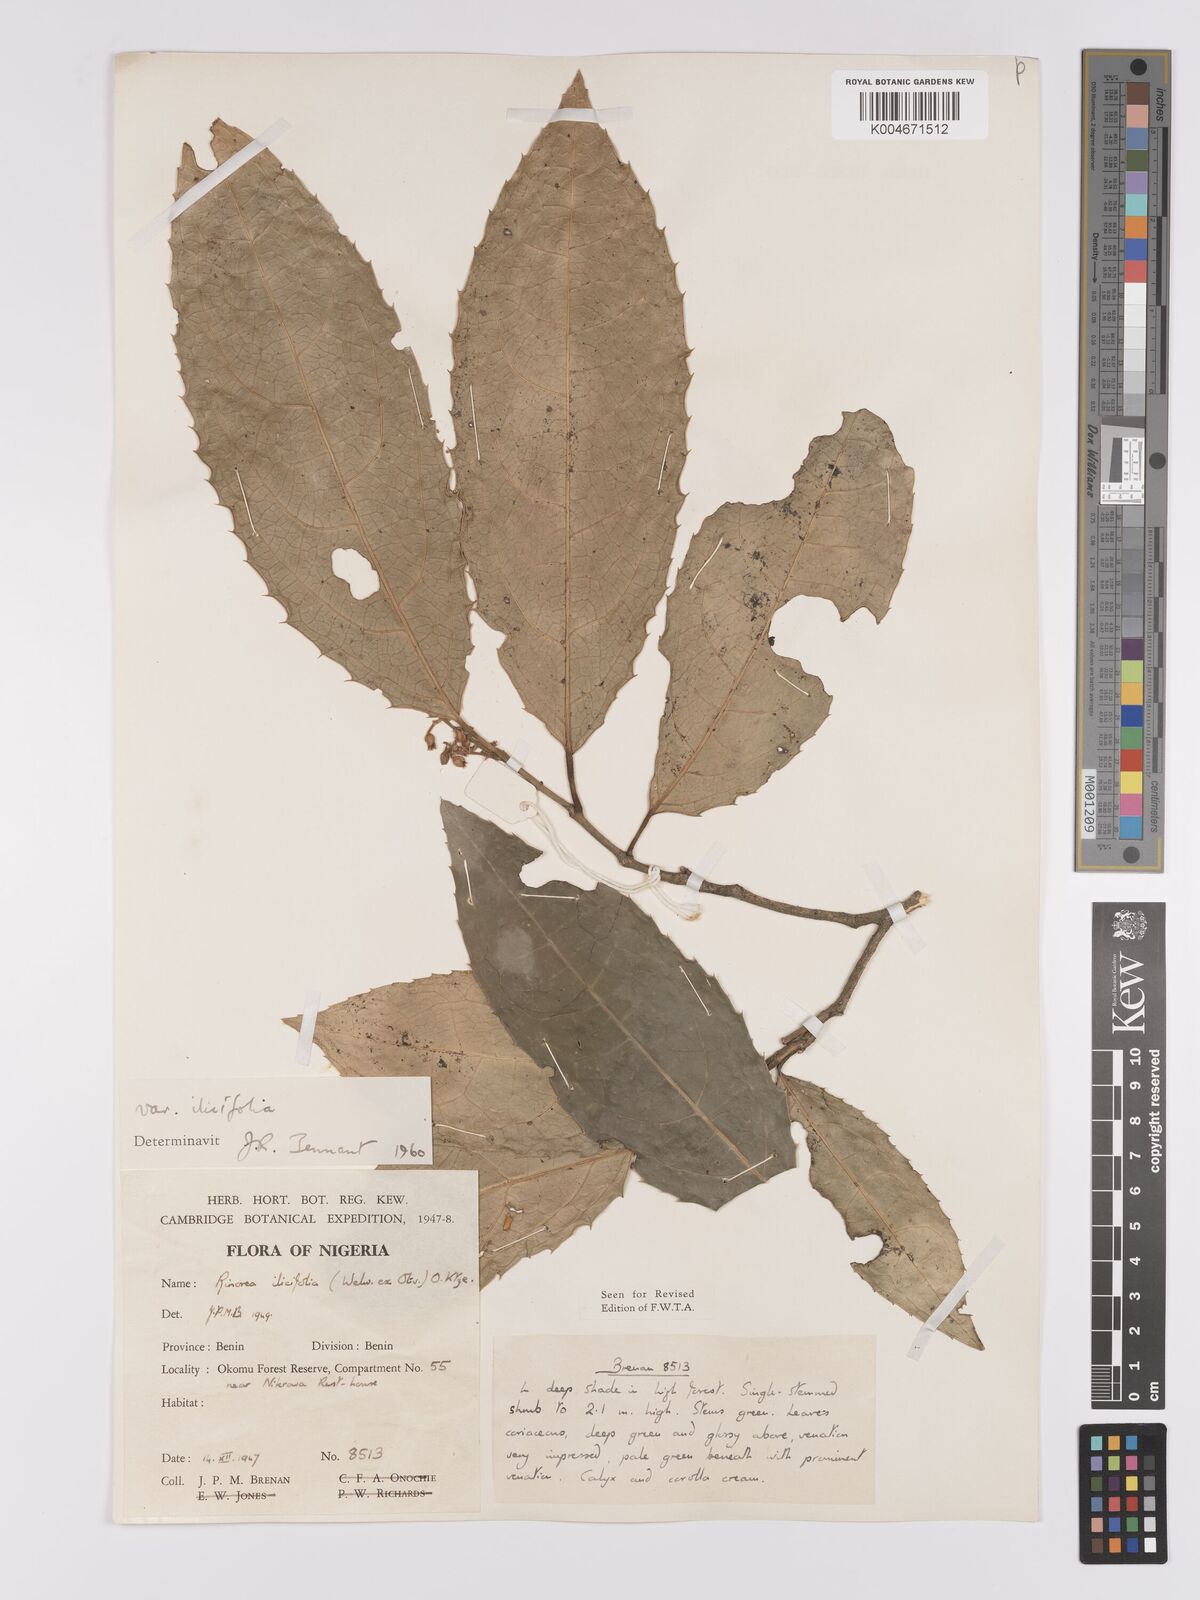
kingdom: Plantae
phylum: Tracheophyta
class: Magnoliopsida
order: Malpighiales
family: Violaceae
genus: Rinorea
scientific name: Rinorea ilicifolia
